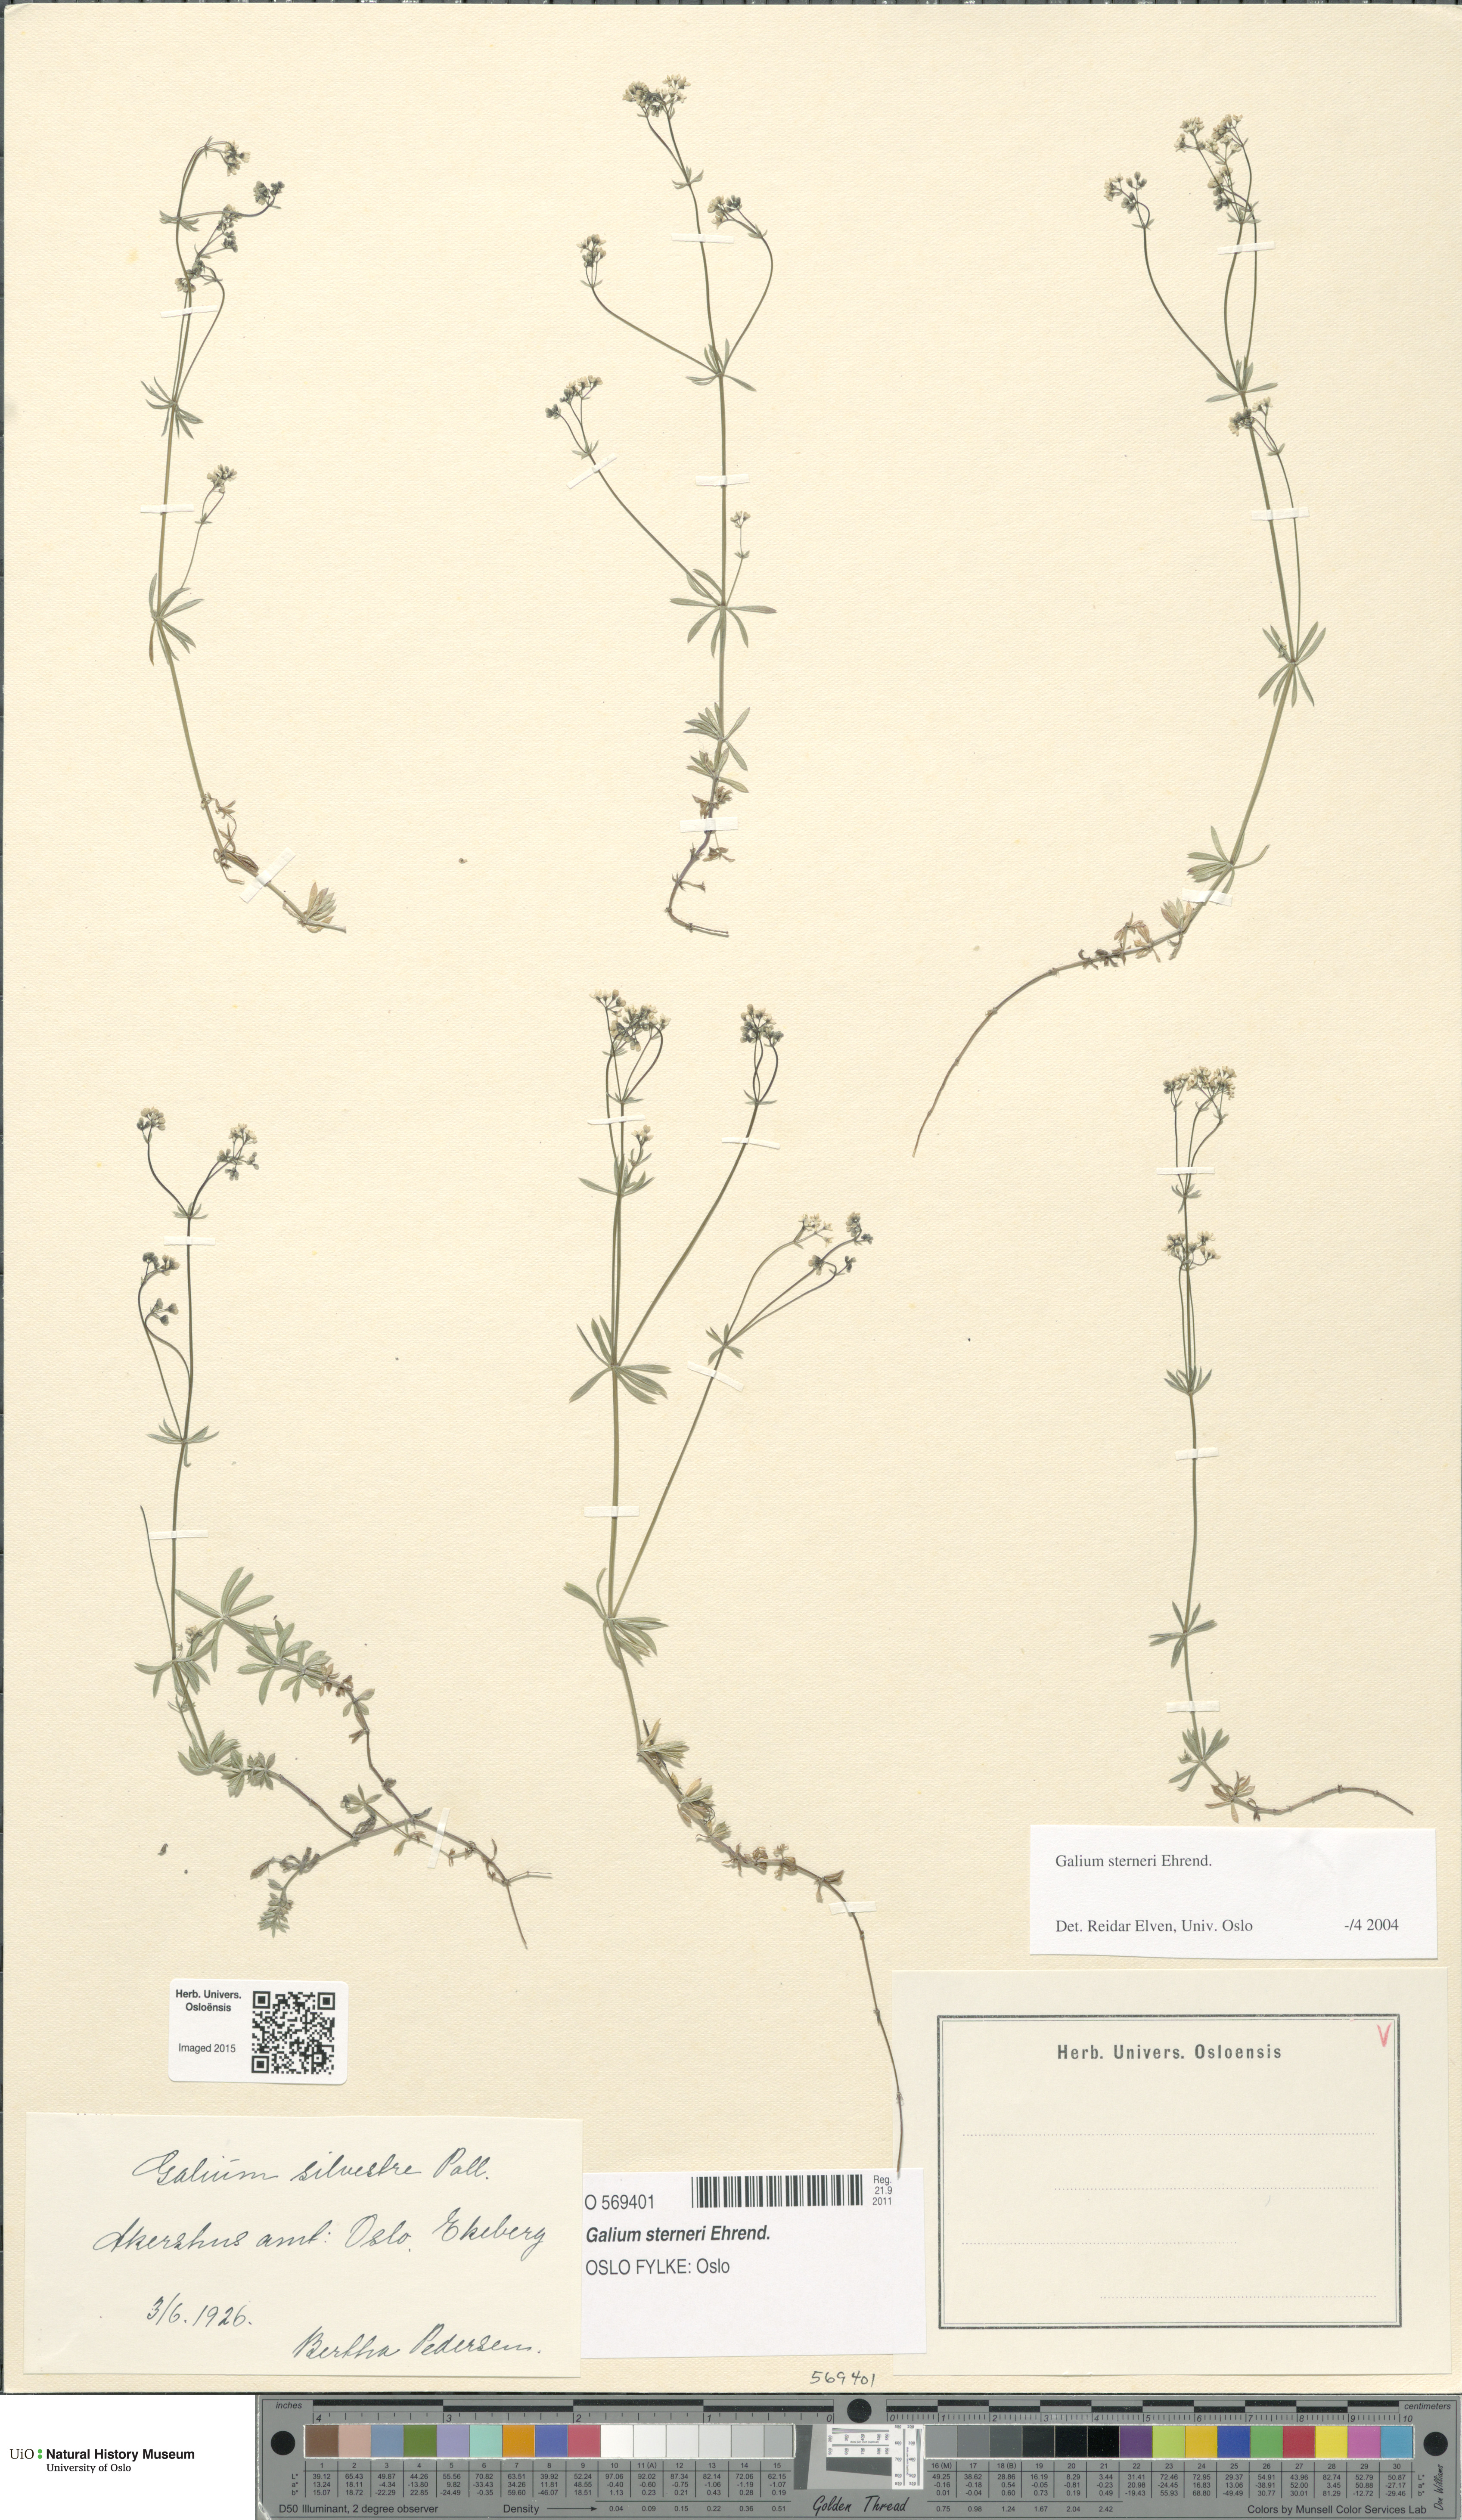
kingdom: Plantae
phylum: Tracheophyta
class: Magnoliopsida
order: Gentianales
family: Rubiaceae
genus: Galium
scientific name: Galium sterneri
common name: Limestone bedstraw
